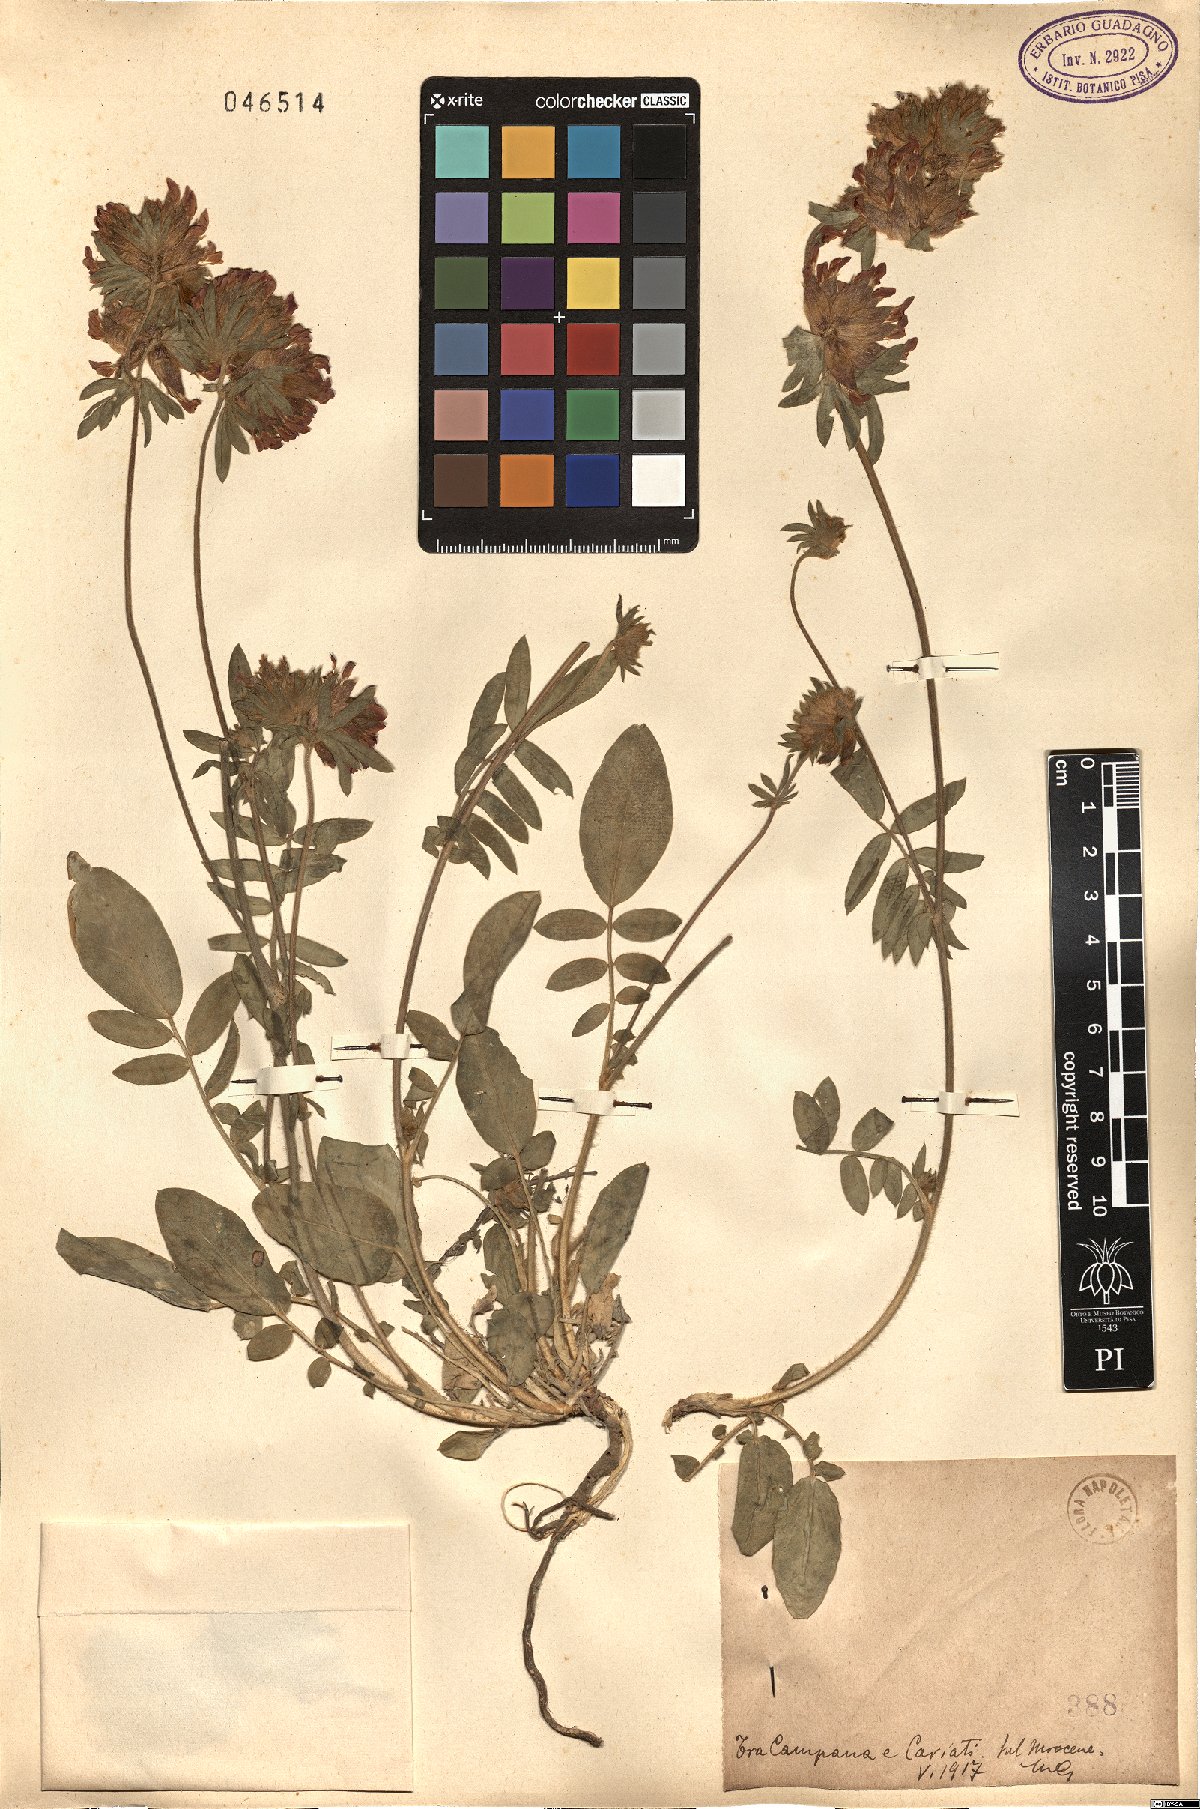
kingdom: Plantae
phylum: Tracheophyta
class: Magnoliopsida
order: Fabales
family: Fabaceae
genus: Anthyllis
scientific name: Anthyllis
